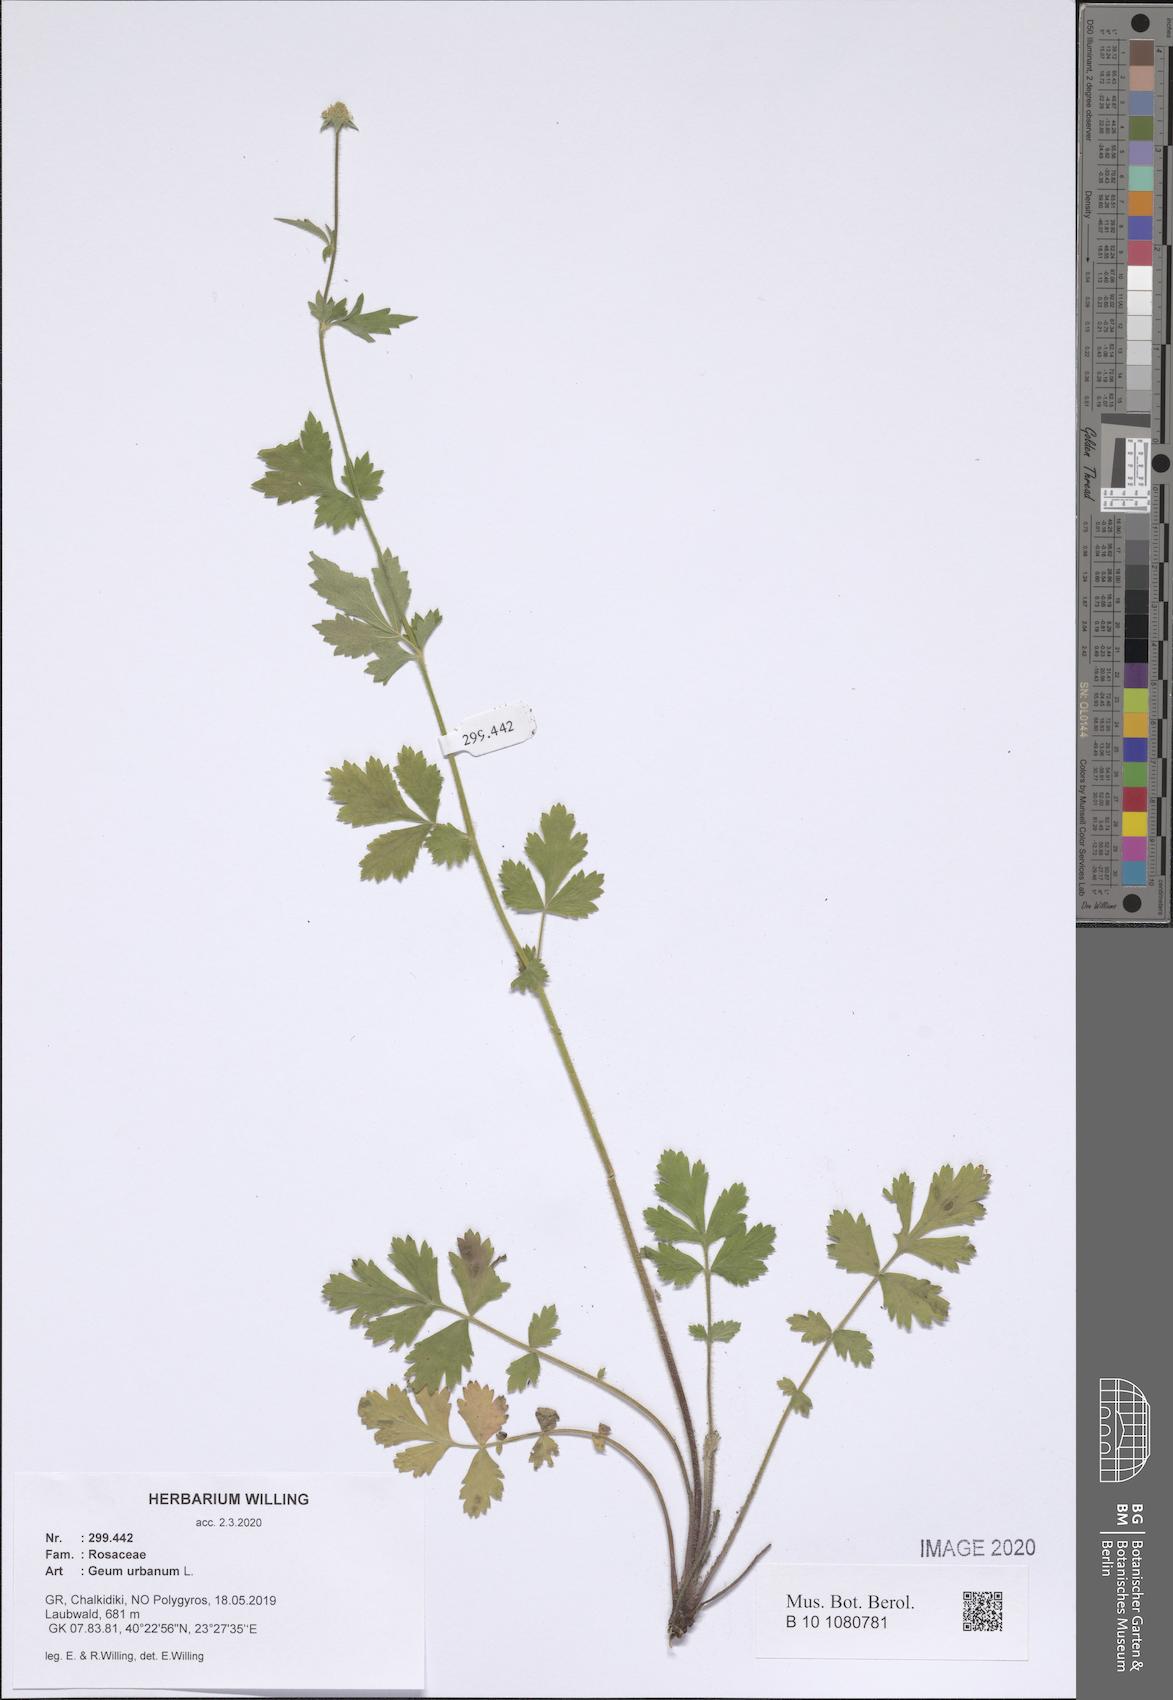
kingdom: Plantae
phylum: Tracheophyta
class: Magnoliopsida
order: Rosales
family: Rosaceae
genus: Geum
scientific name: Geum urbanum
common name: Wood avens
